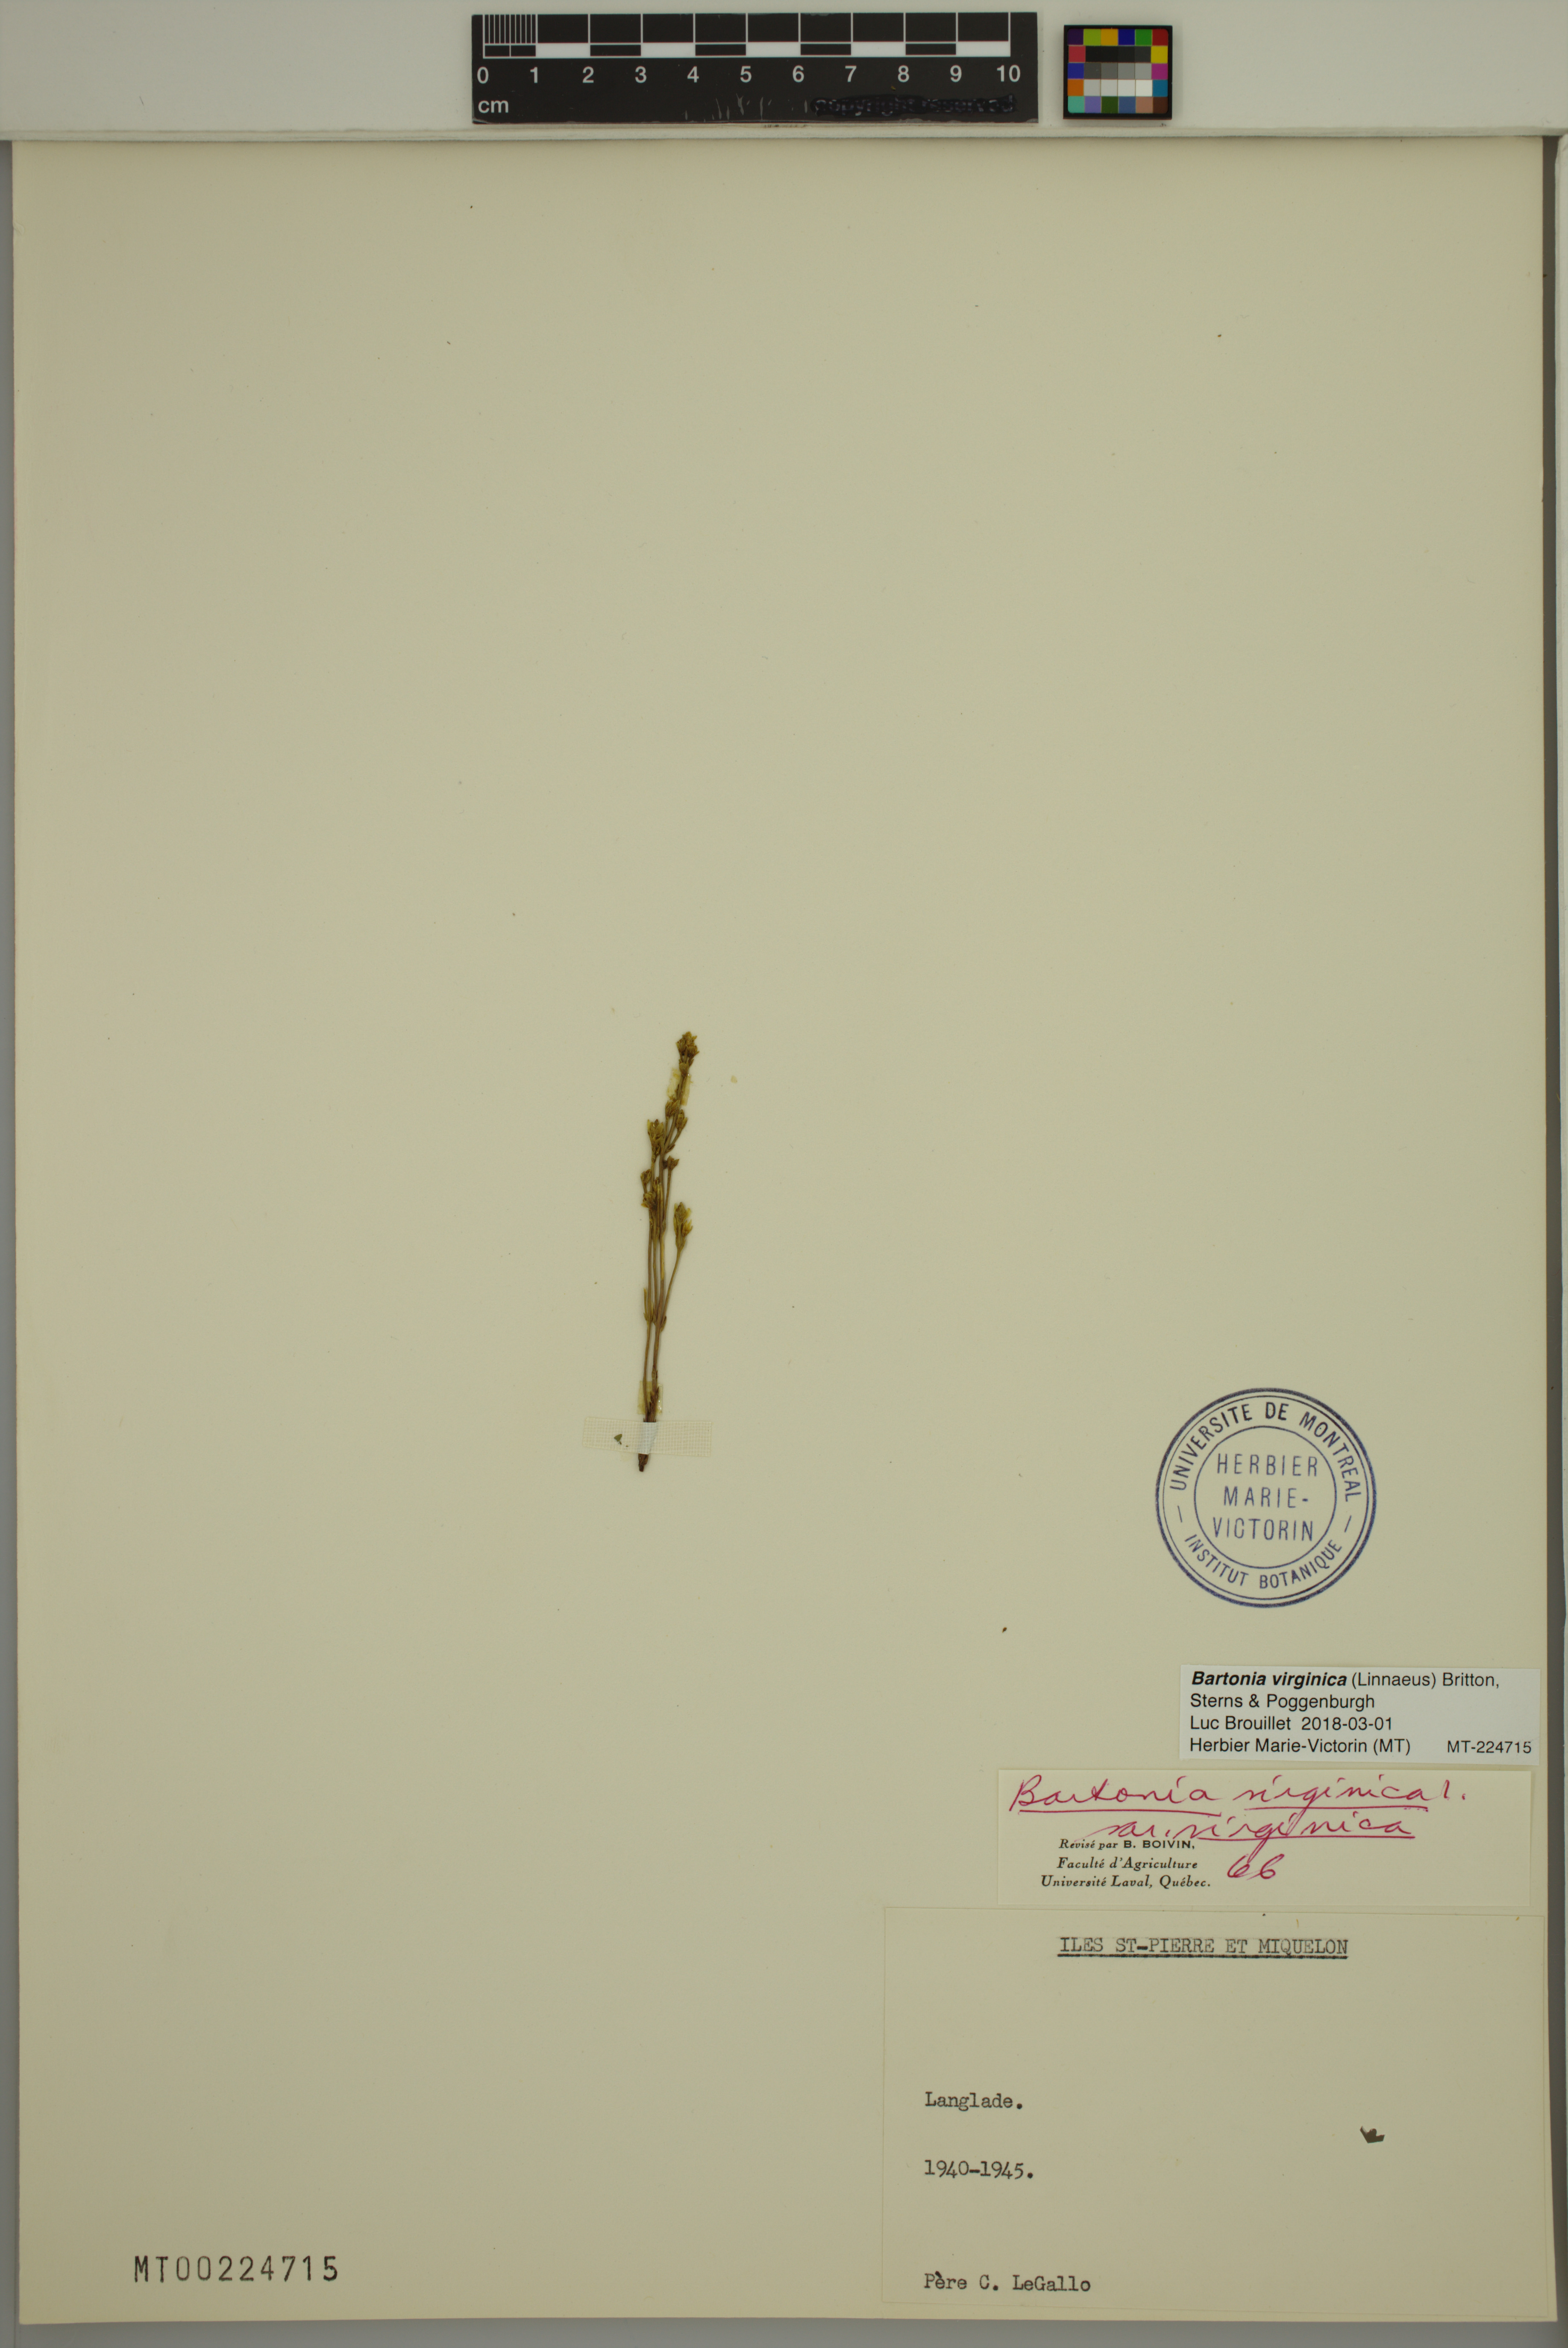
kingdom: Plantae
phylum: Tracheophyta
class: Magnoliopsida
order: Gentianales
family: Gentianaceae
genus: Bartonia
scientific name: Bartonia virginica
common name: Yellow bartonia
